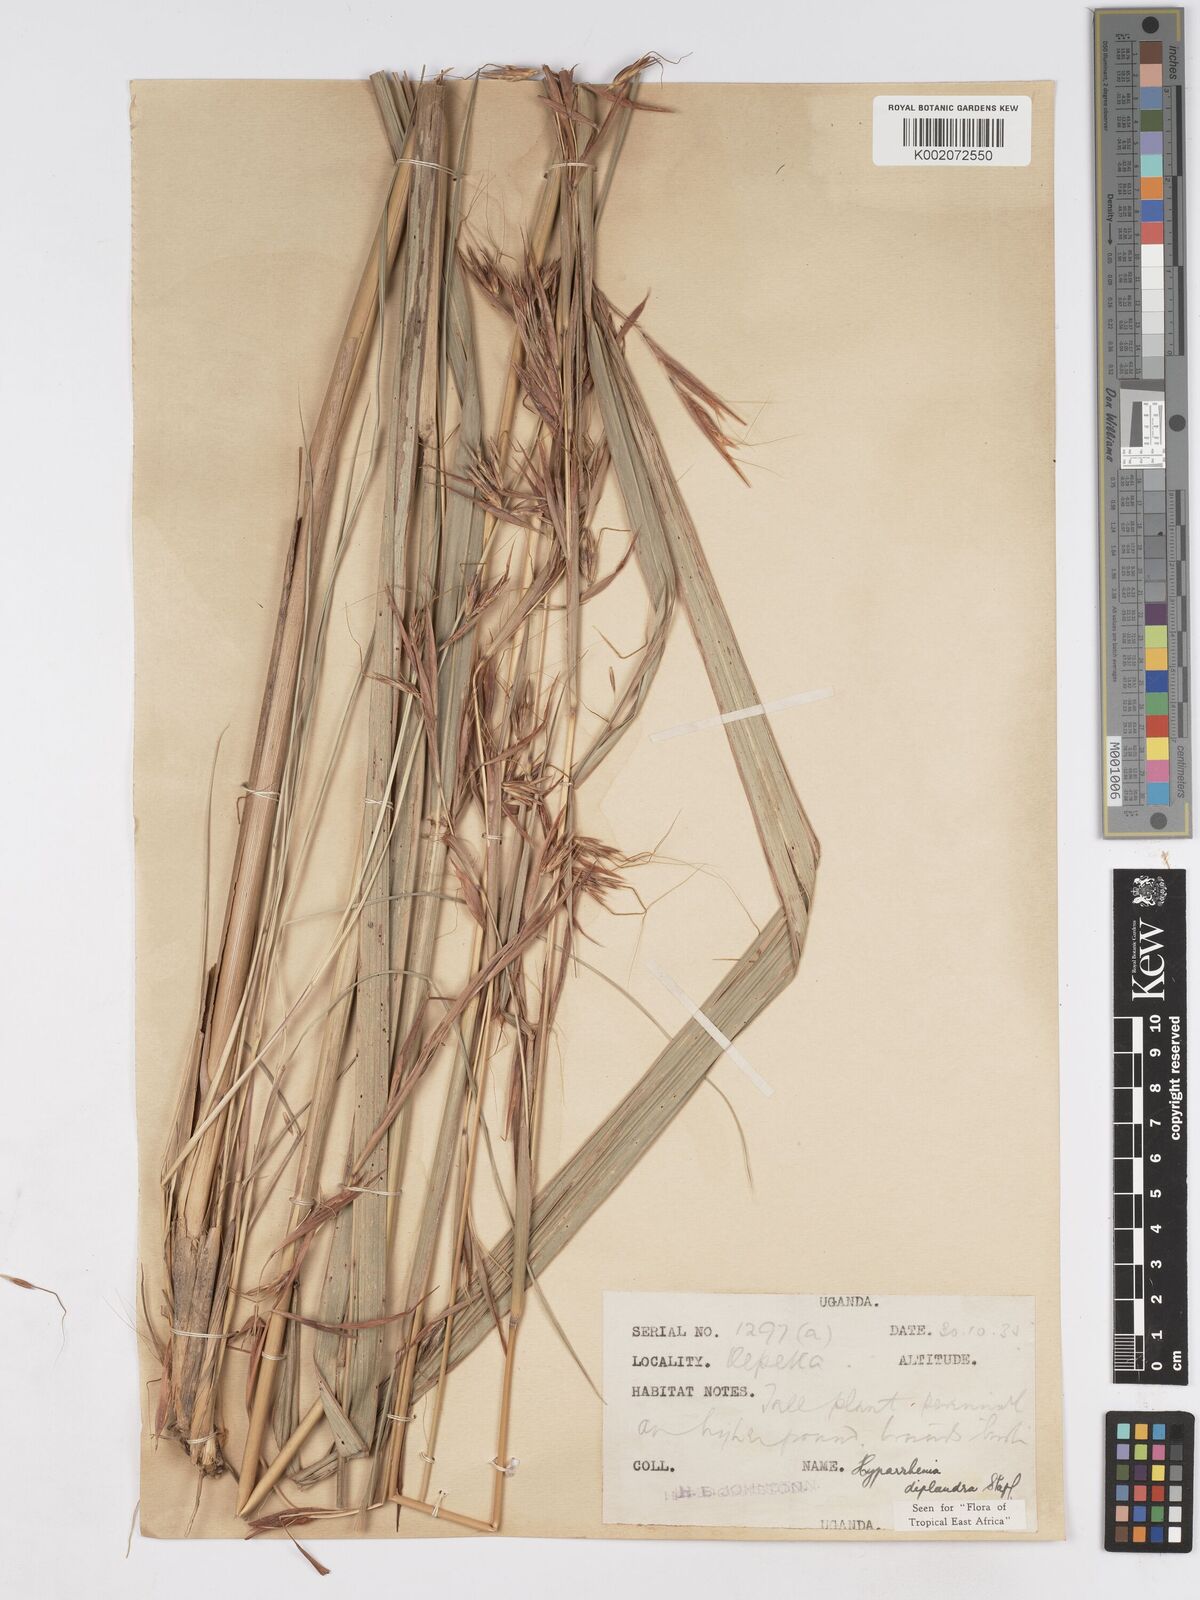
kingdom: Plantae
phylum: Tracheophyta
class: Liliopsida
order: Poales
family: Poaceae
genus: Hyparrhenia
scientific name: Hyparrhenia diplandra
